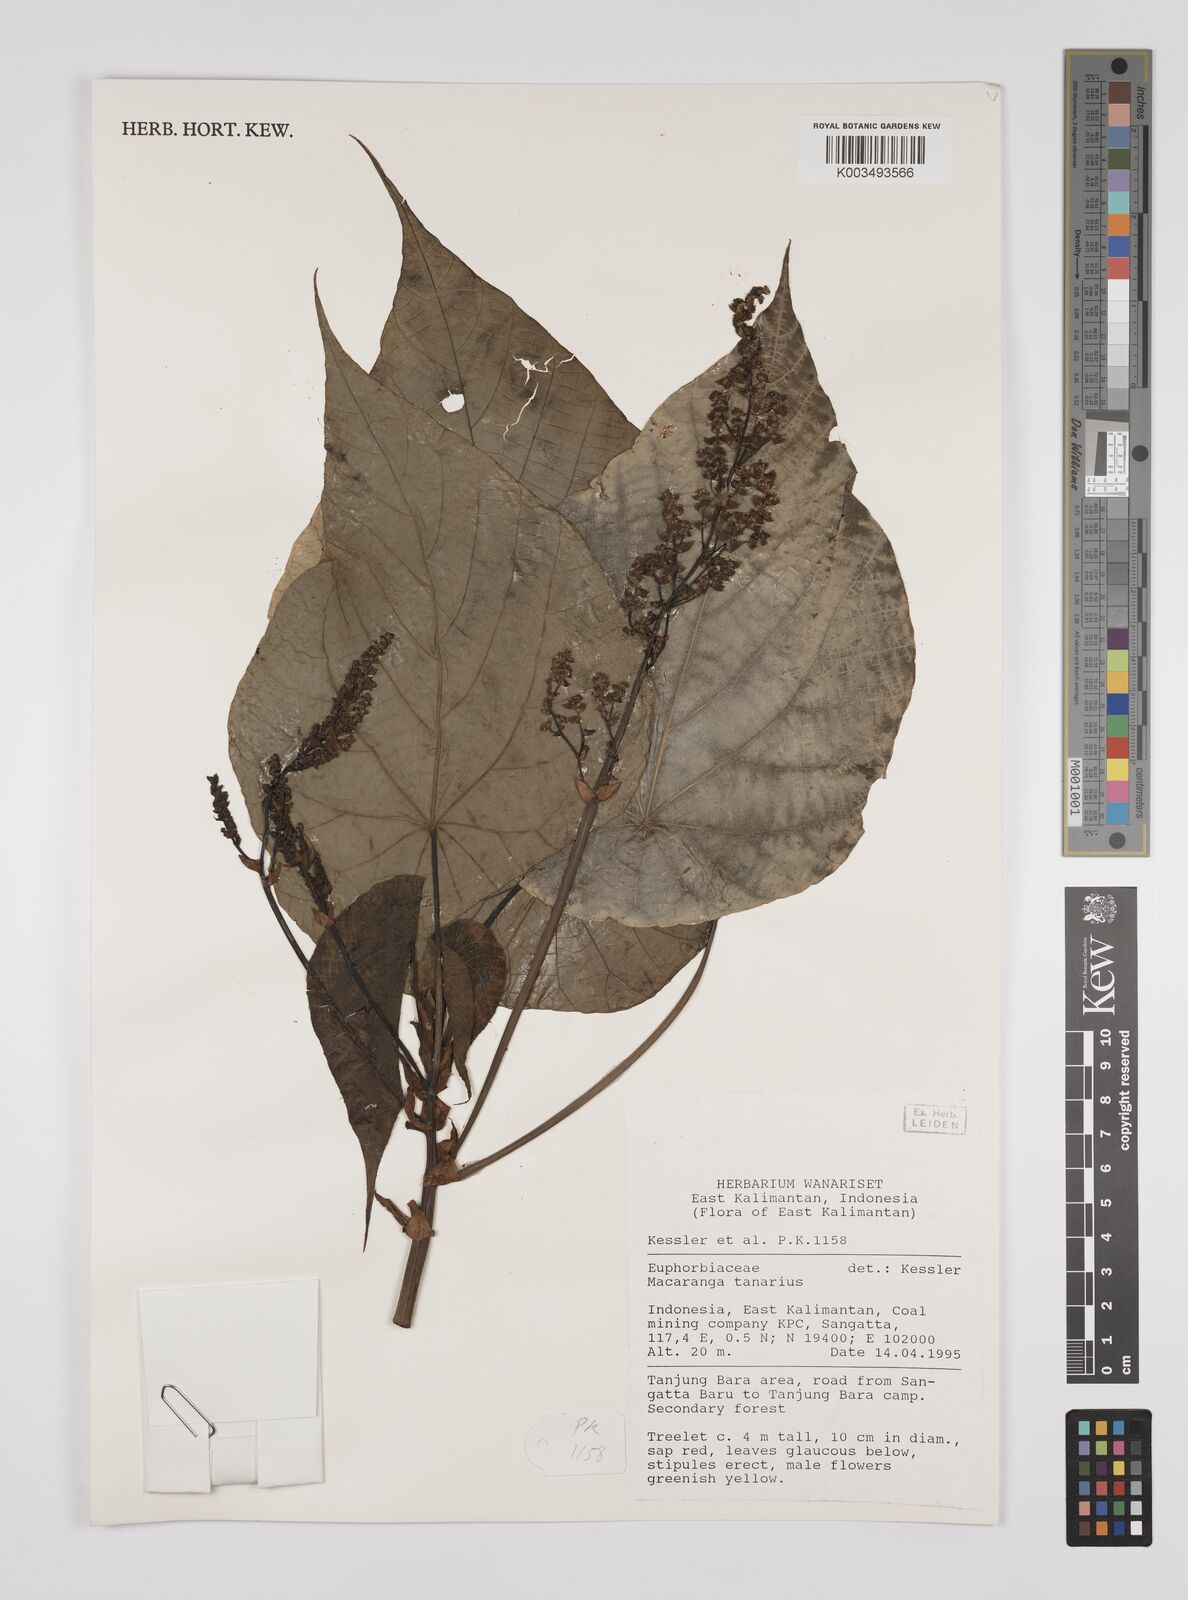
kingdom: Plantae
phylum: Tracheophyta
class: Magnoliopsida
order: Malpighiales
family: Euphorbiaceae
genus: Macaranga
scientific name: Macaranga tanarius
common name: Parasol leaf tree
